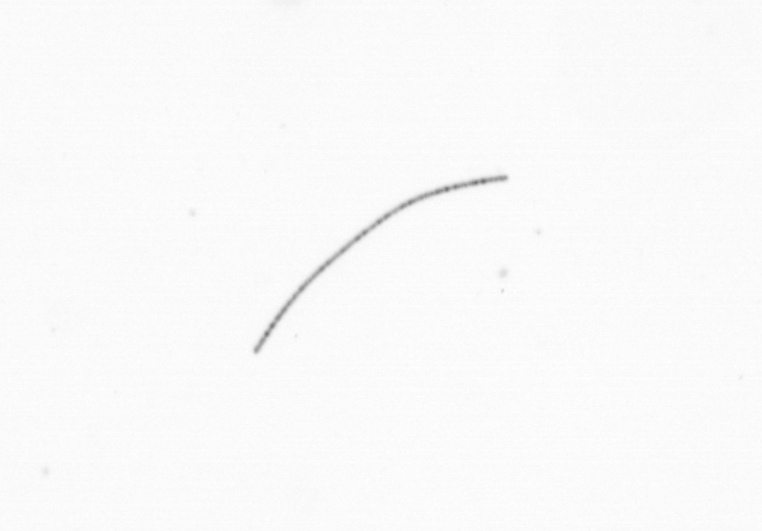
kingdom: Chromista
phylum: Ochrophyta
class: Bacillariophyceae
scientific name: Bacillariophyceae
